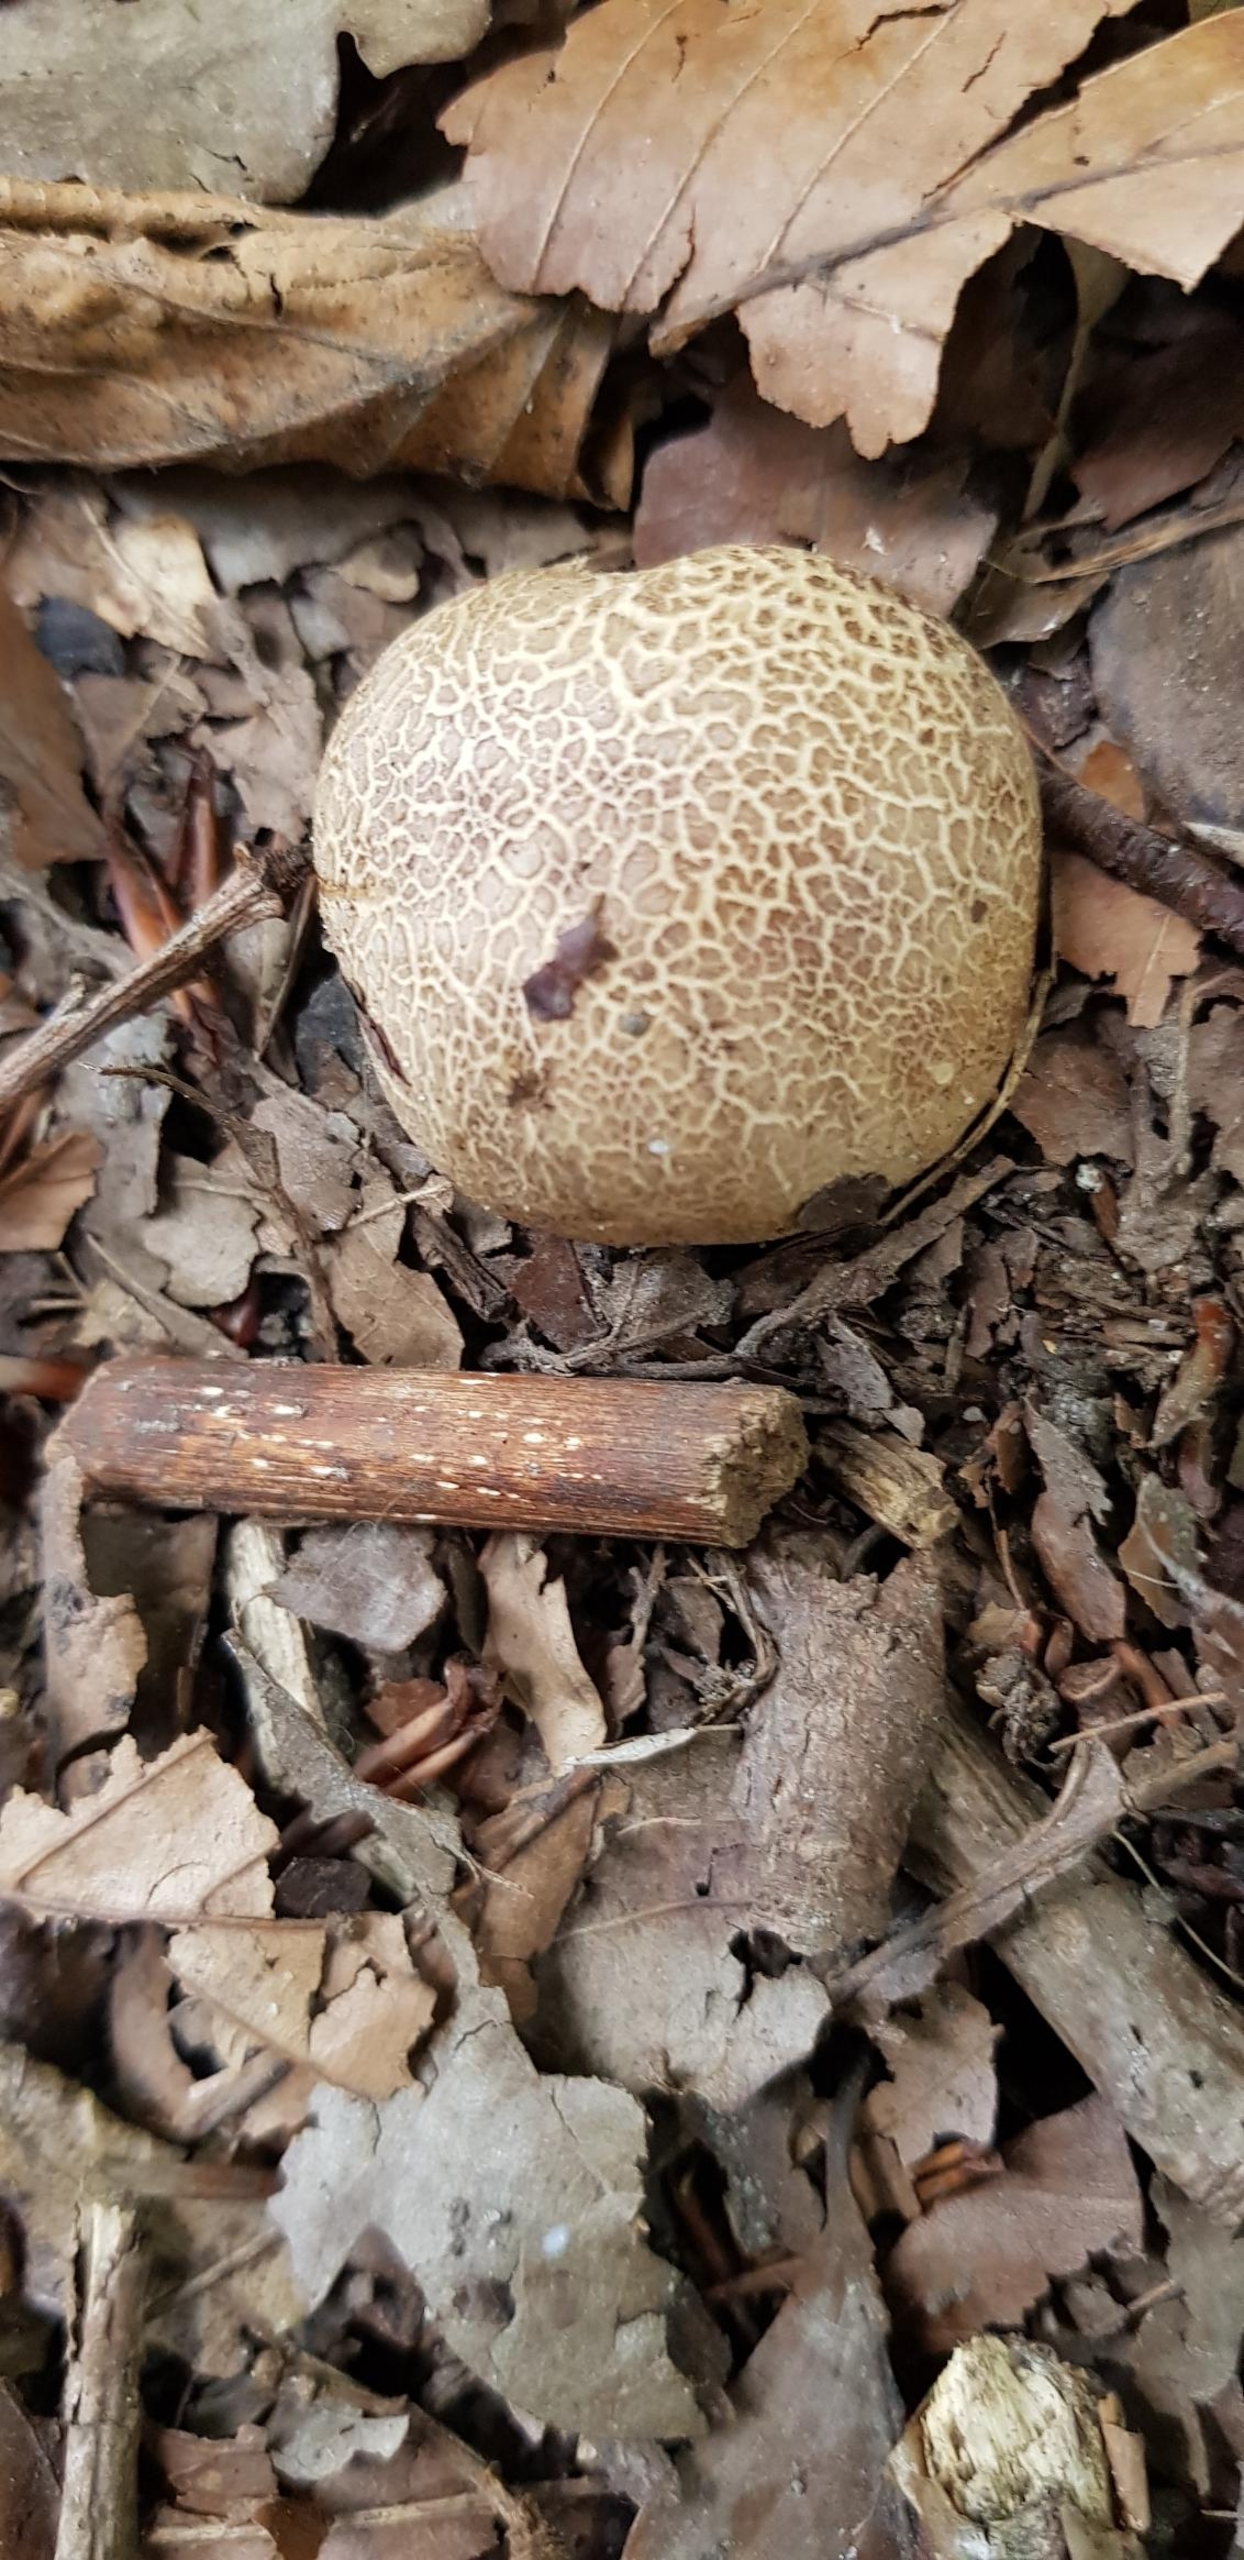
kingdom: Fungi
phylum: Basidiomycota
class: Agaricomycetes
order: Boletales
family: Sclerodermataceae
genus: Scleroderma
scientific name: Scleroderma citrinum
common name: Almindelig bruskbold
